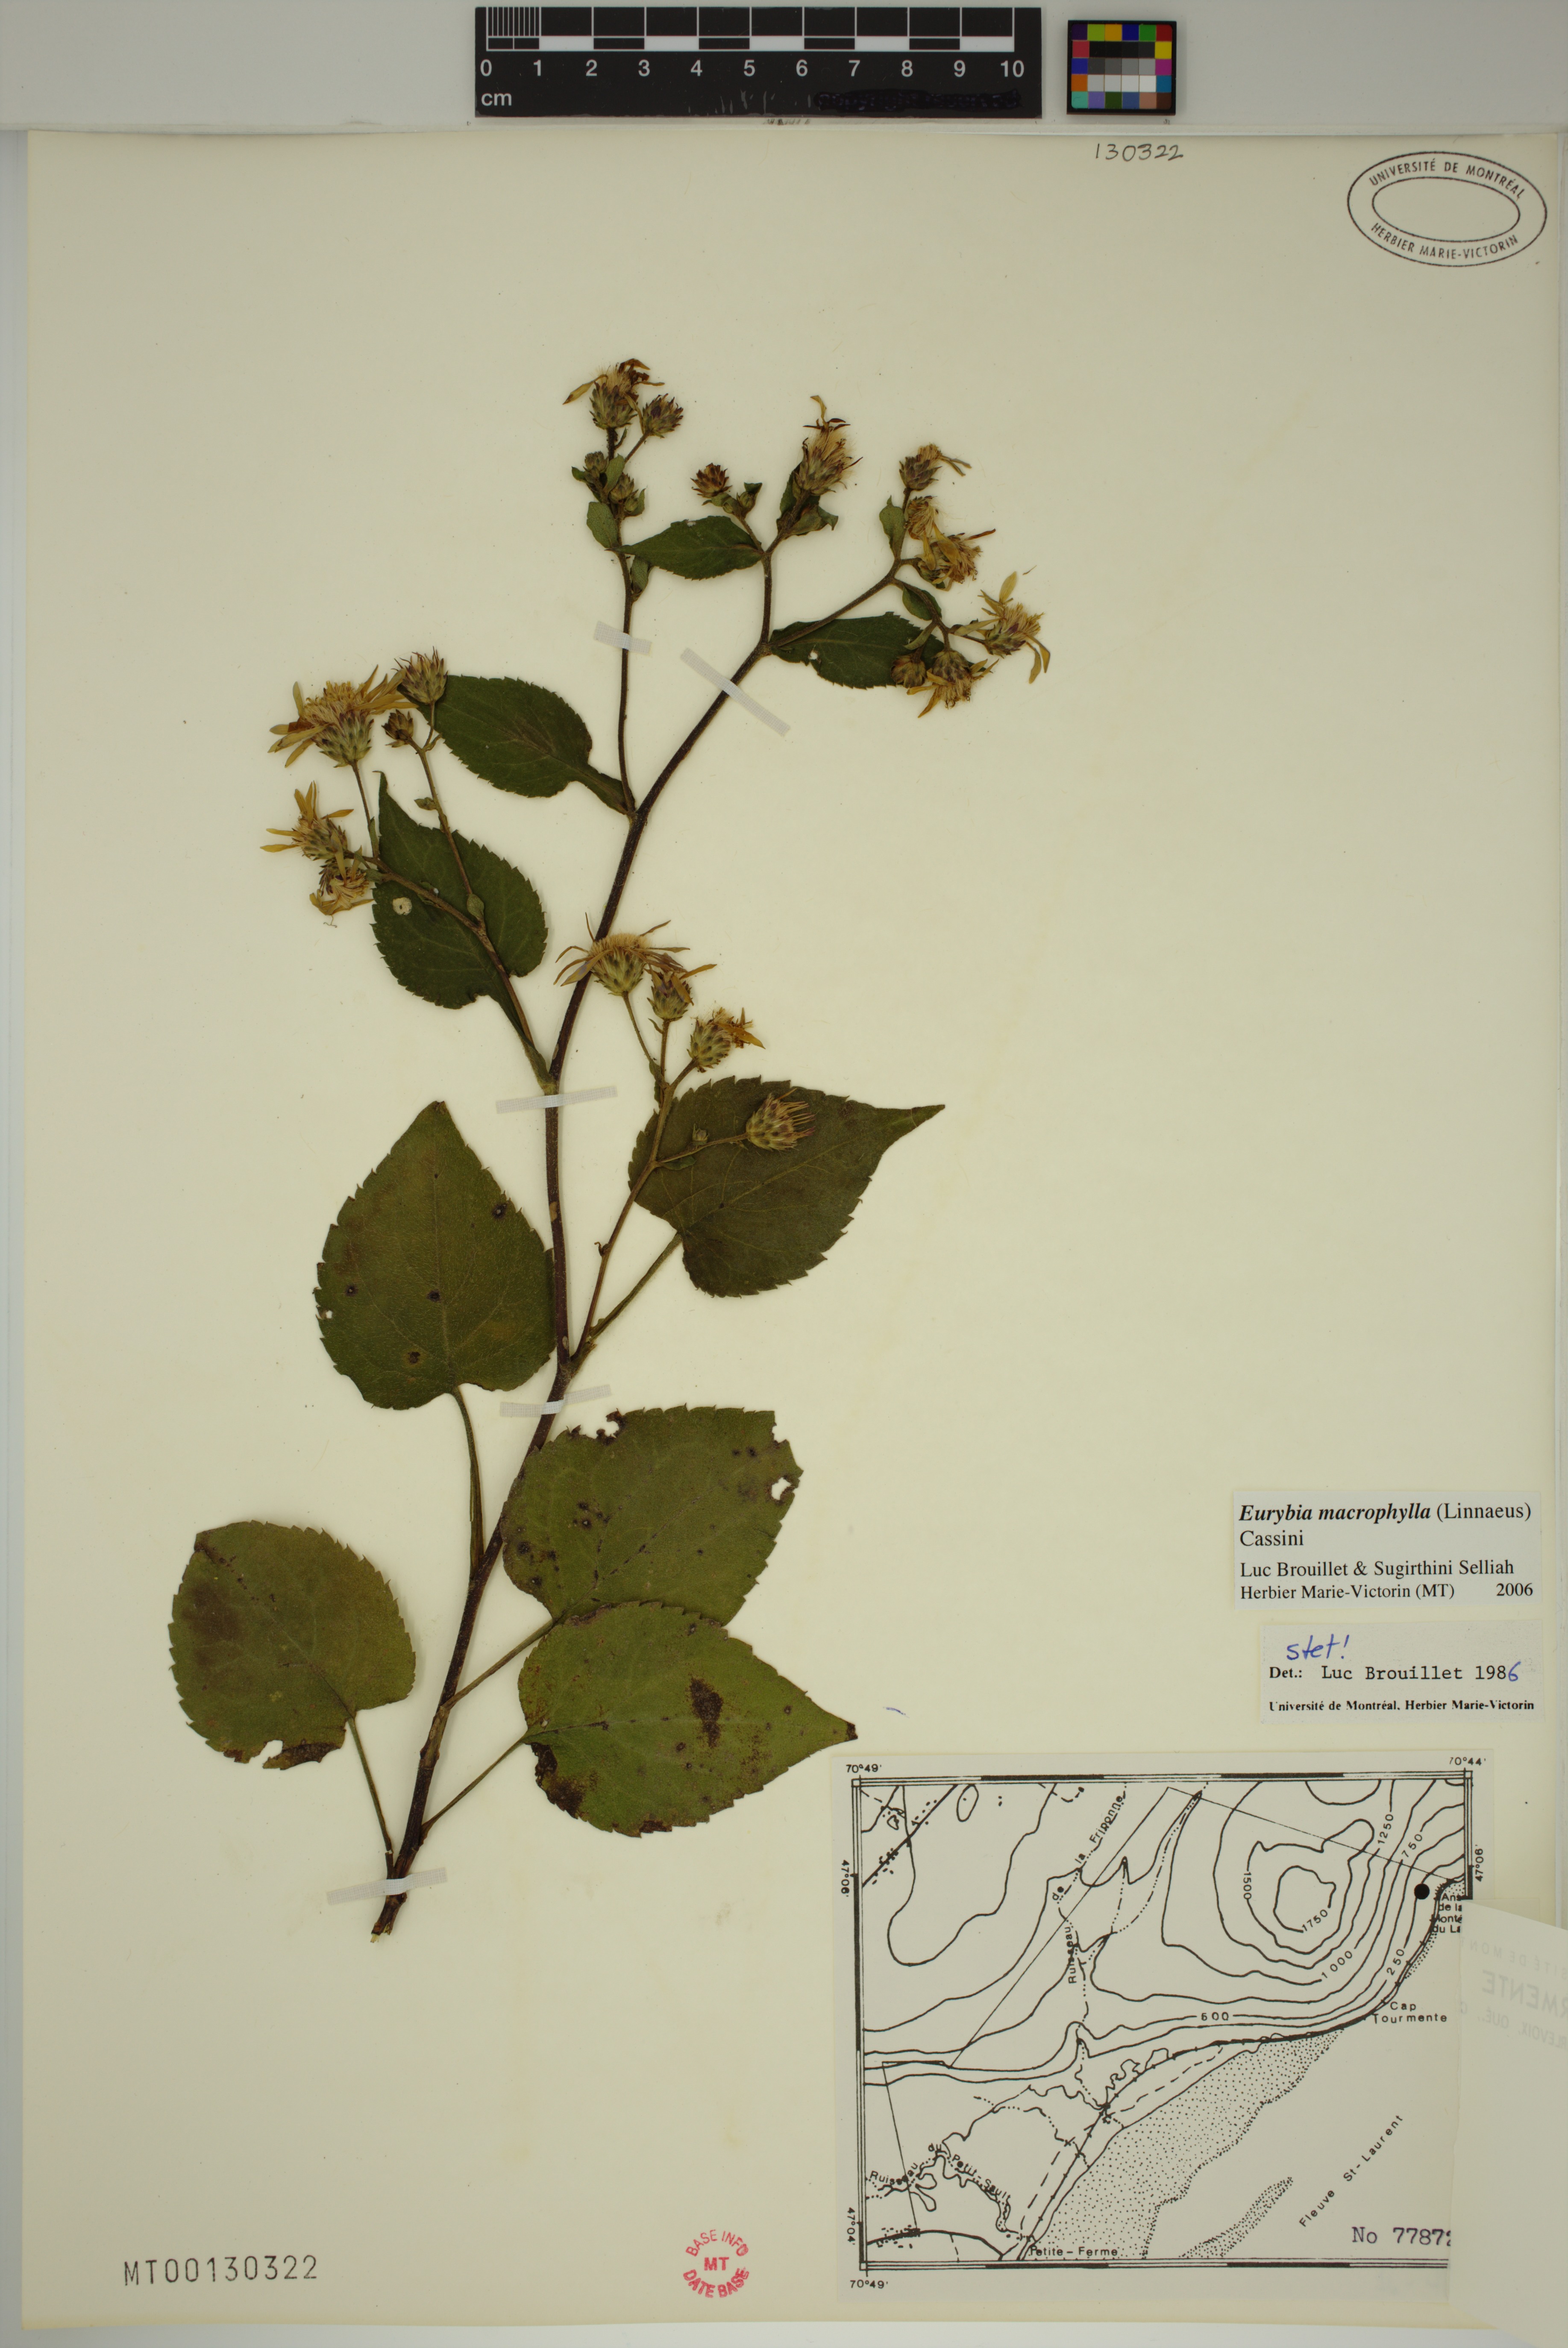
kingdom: Plantae
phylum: Tracheophyta
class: Magnoliopsida
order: Asterales
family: Asteraceae
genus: Eurybia
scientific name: Eurybia macrophylla
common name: Big-leaved aster
